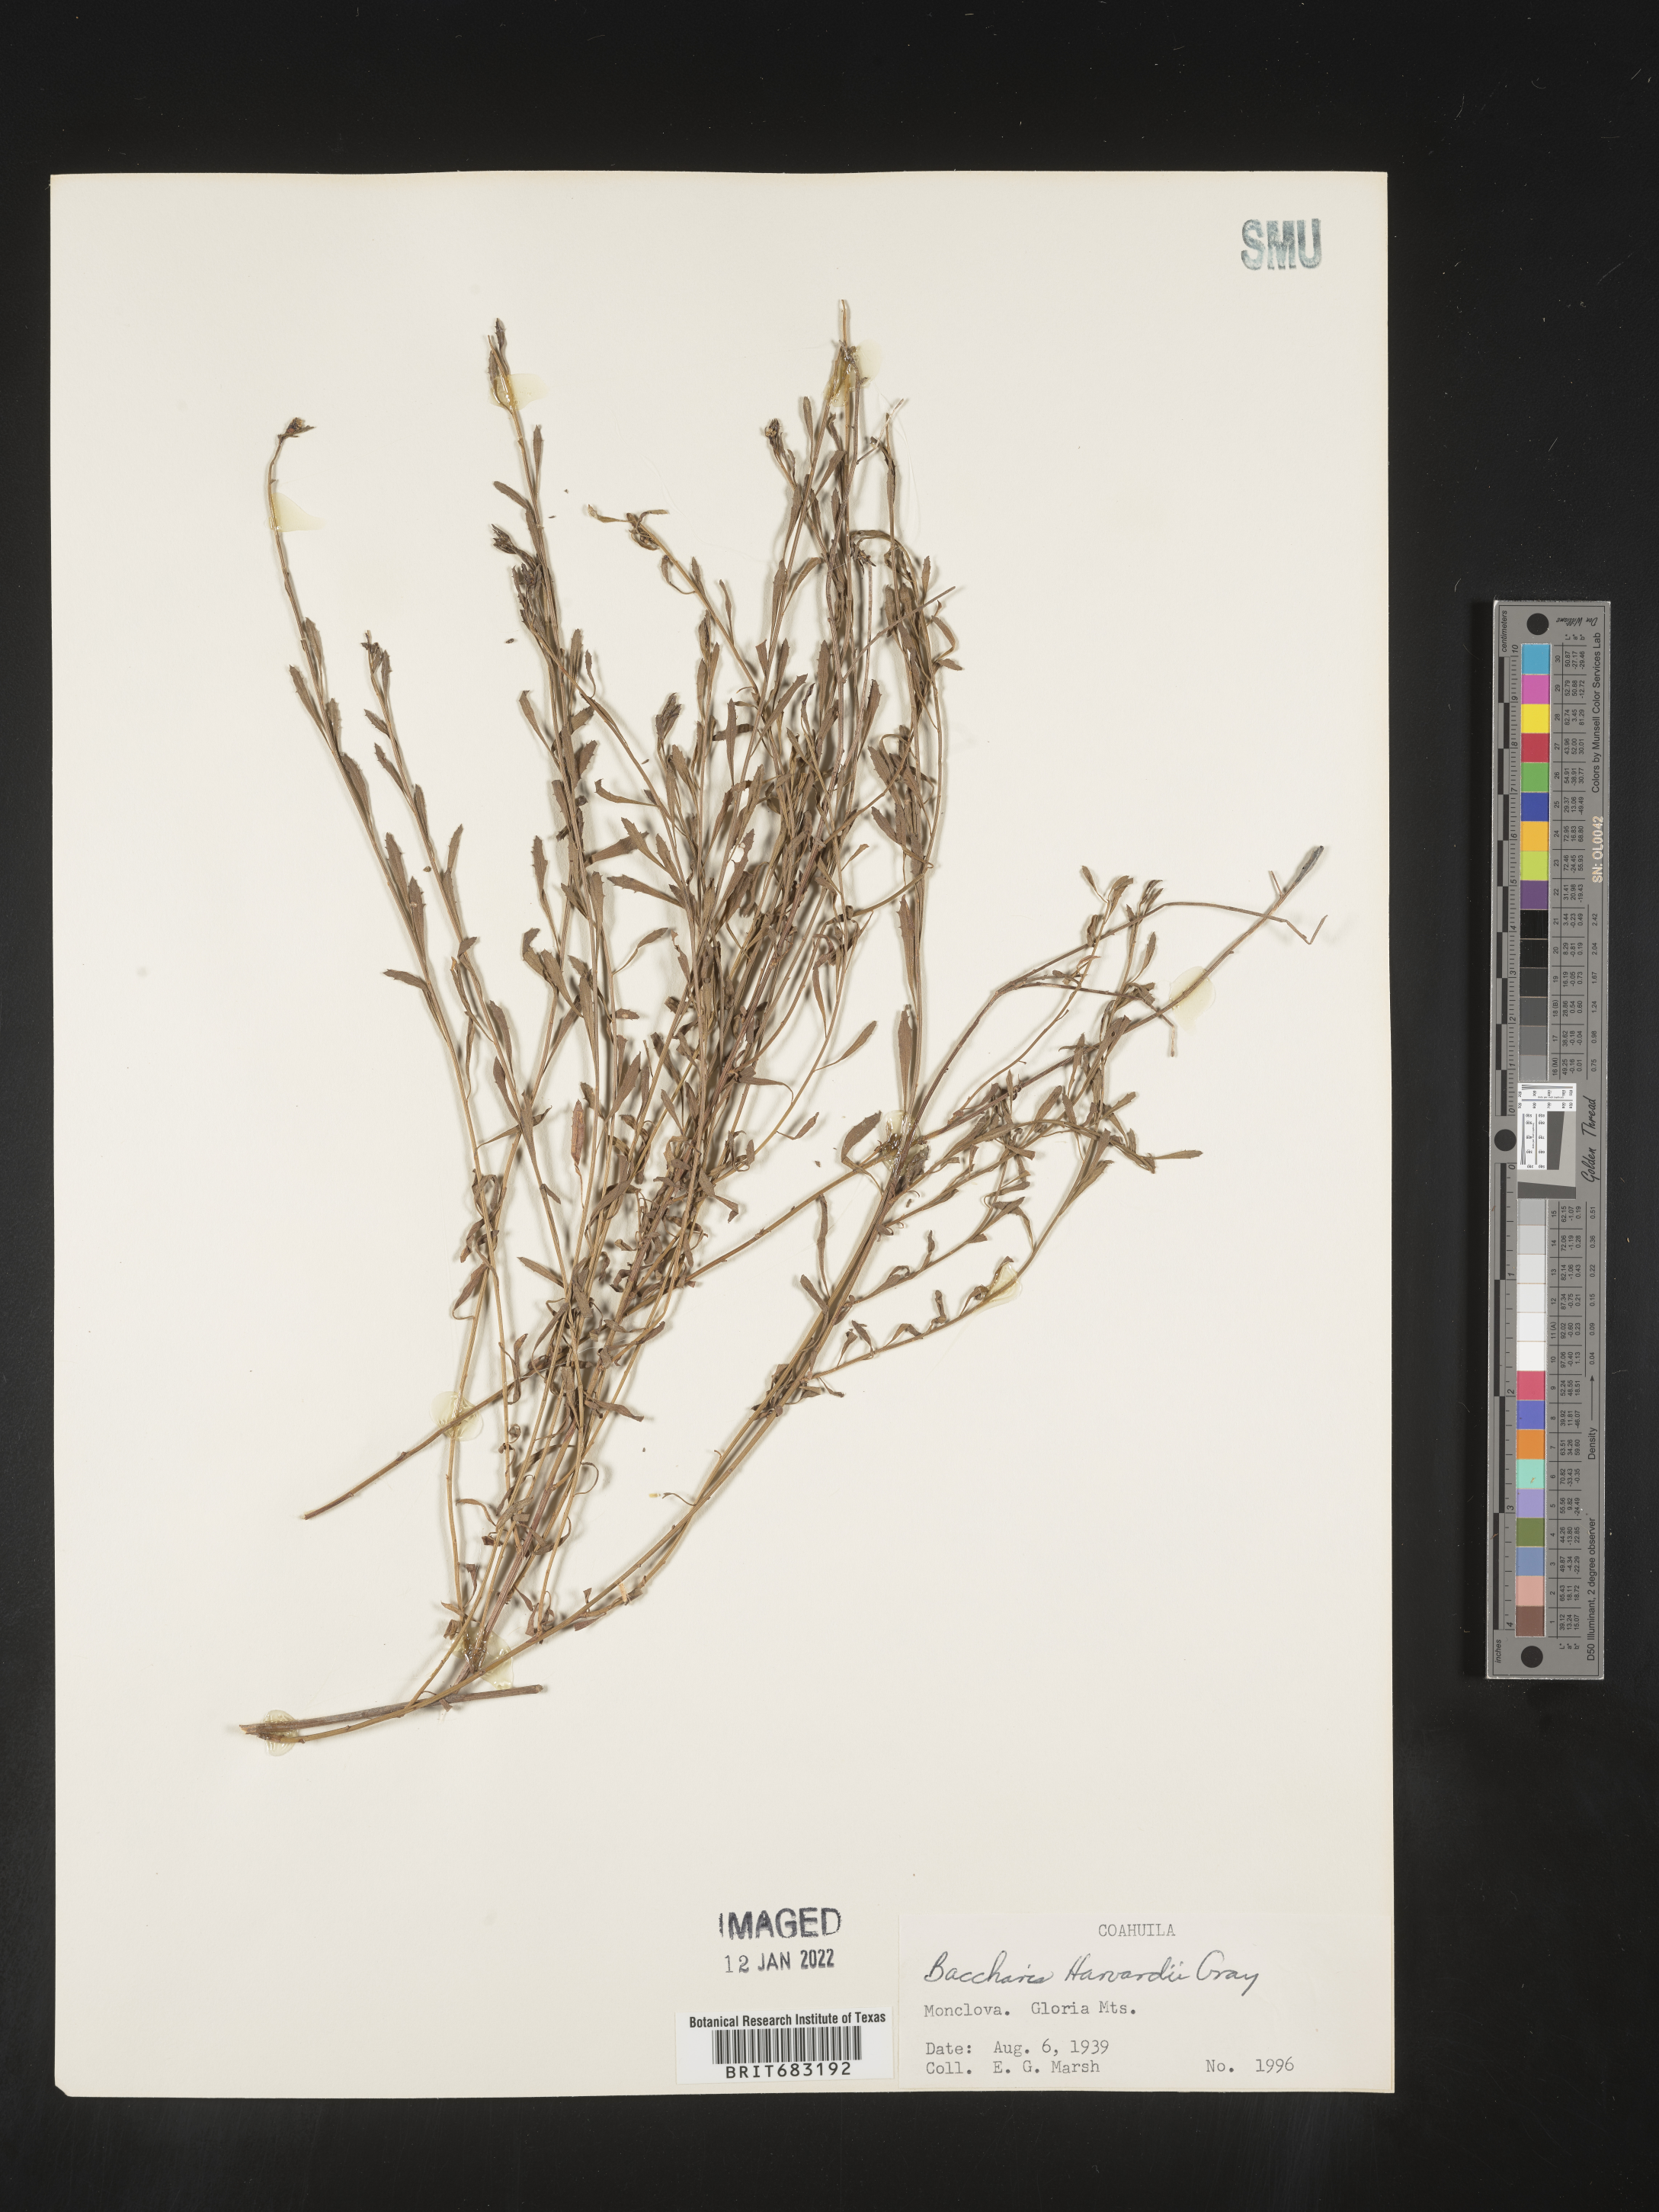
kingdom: Plantae
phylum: Tracheophyta
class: Magnoliopsida
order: Asterales
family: Asteraceae
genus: Baccharis
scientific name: Baccharis
